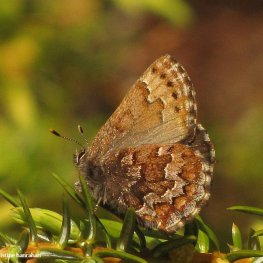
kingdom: Animalia
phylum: Arthropoda
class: Insecta
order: Lepidoptera
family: Lycaenidae
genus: Incisalia
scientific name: Incisalia niphon
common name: Eastern Pine Elfin
